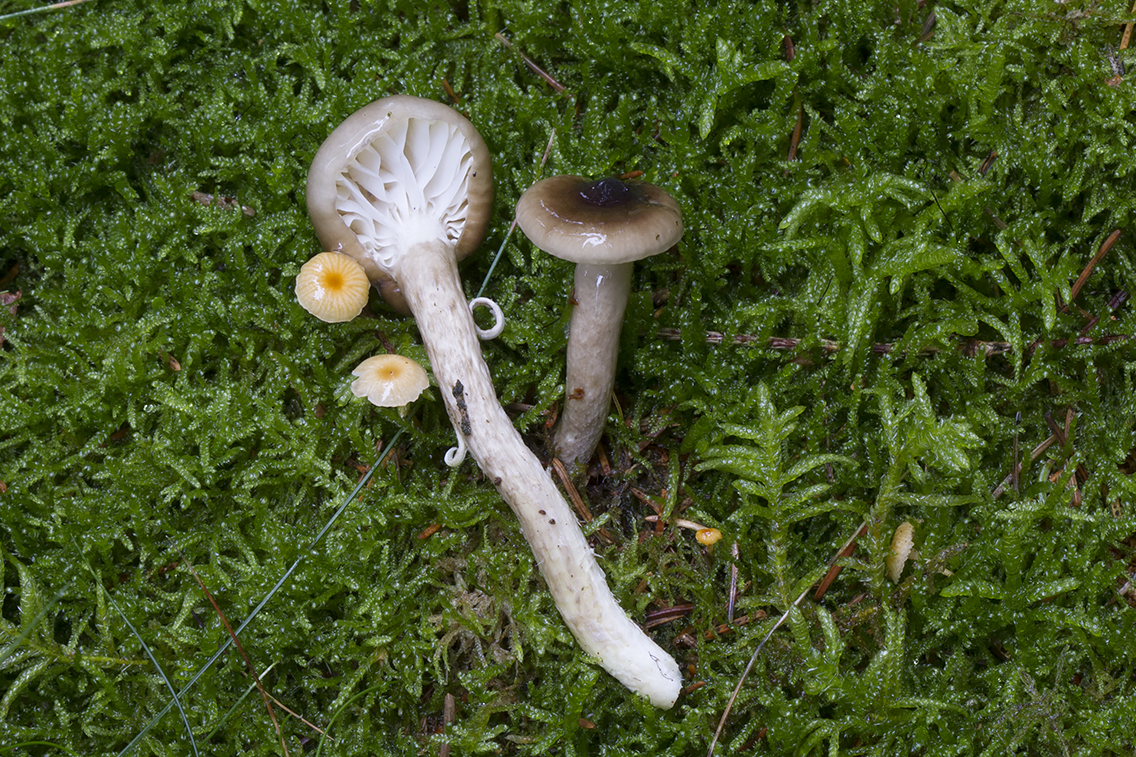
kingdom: Fungi
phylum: Basidiomycota
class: Agaricomycetes
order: Agaricales
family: Hygrophoraceae
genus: Hygrophorus
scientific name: Hygrophorus olivaceoalbus
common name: hvidbrun sneglehat
